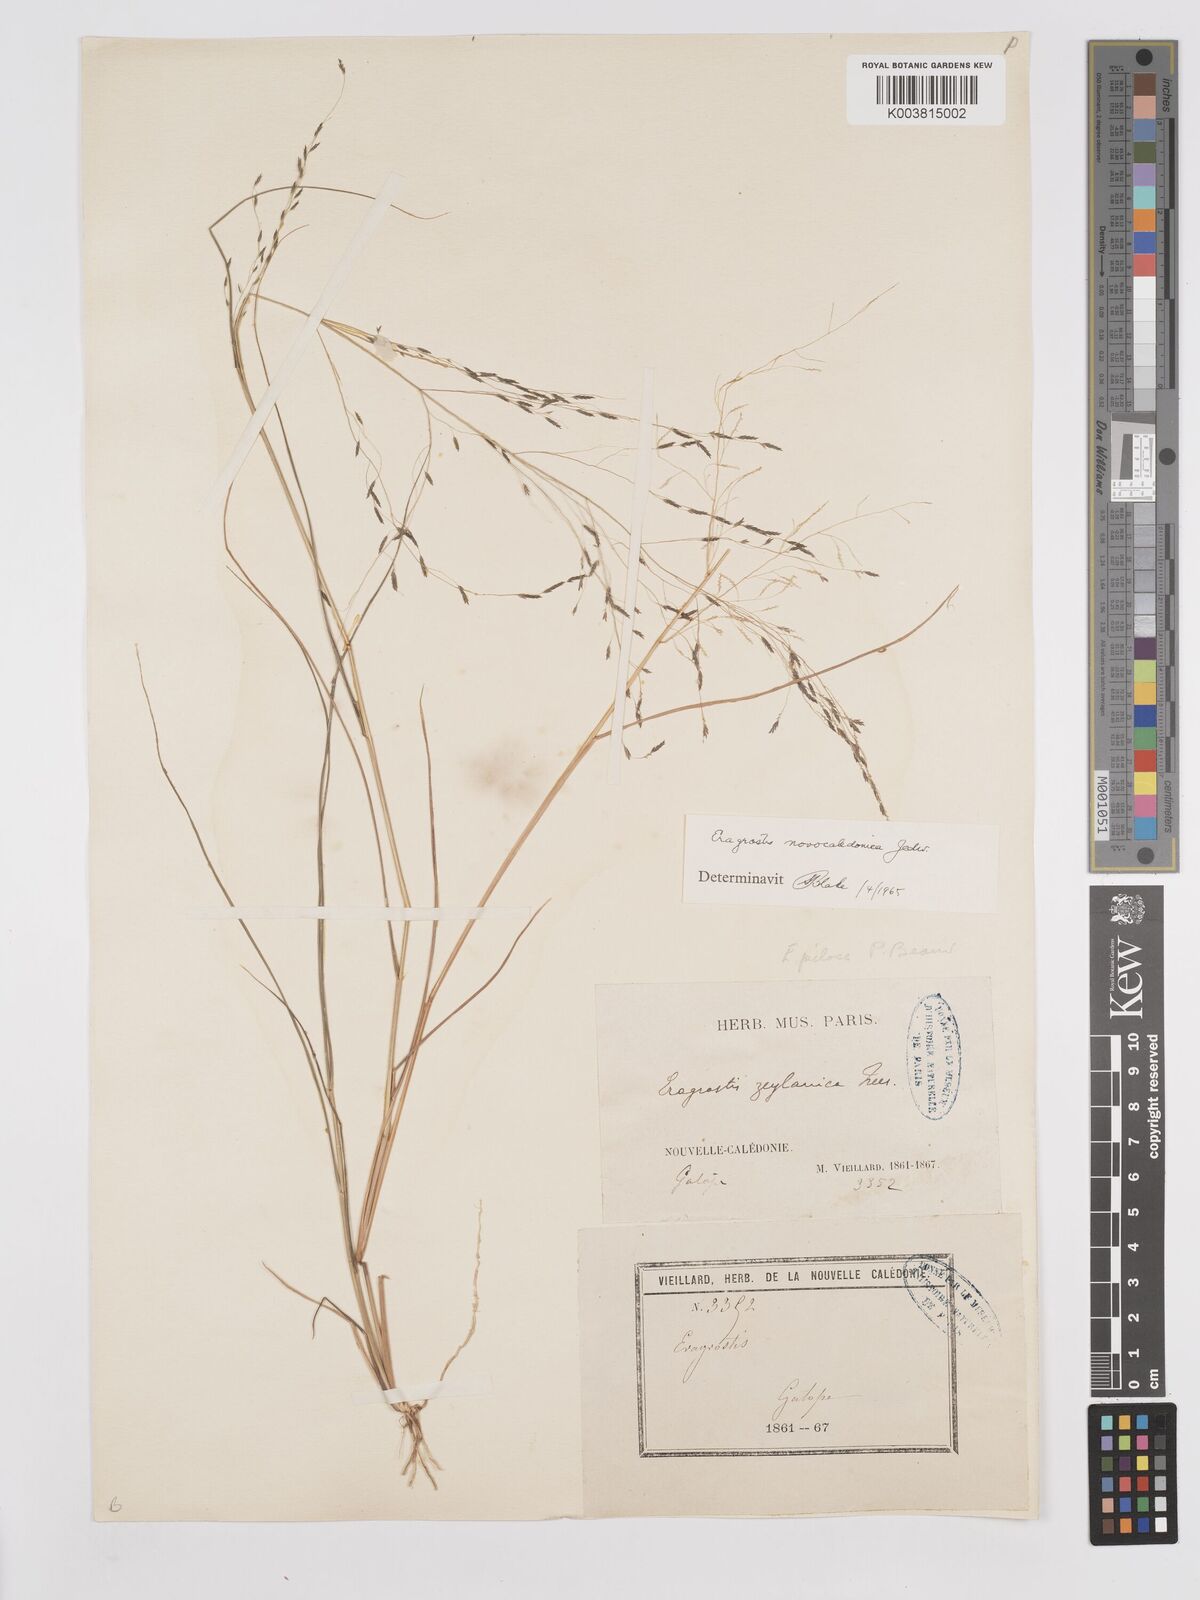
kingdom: Plantae
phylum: Tracheophyta
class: Liliopsida
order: Poales
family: Poaceae
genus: Eragrostis
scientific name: Eragrostis parviflora
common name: Weeping love-grass
